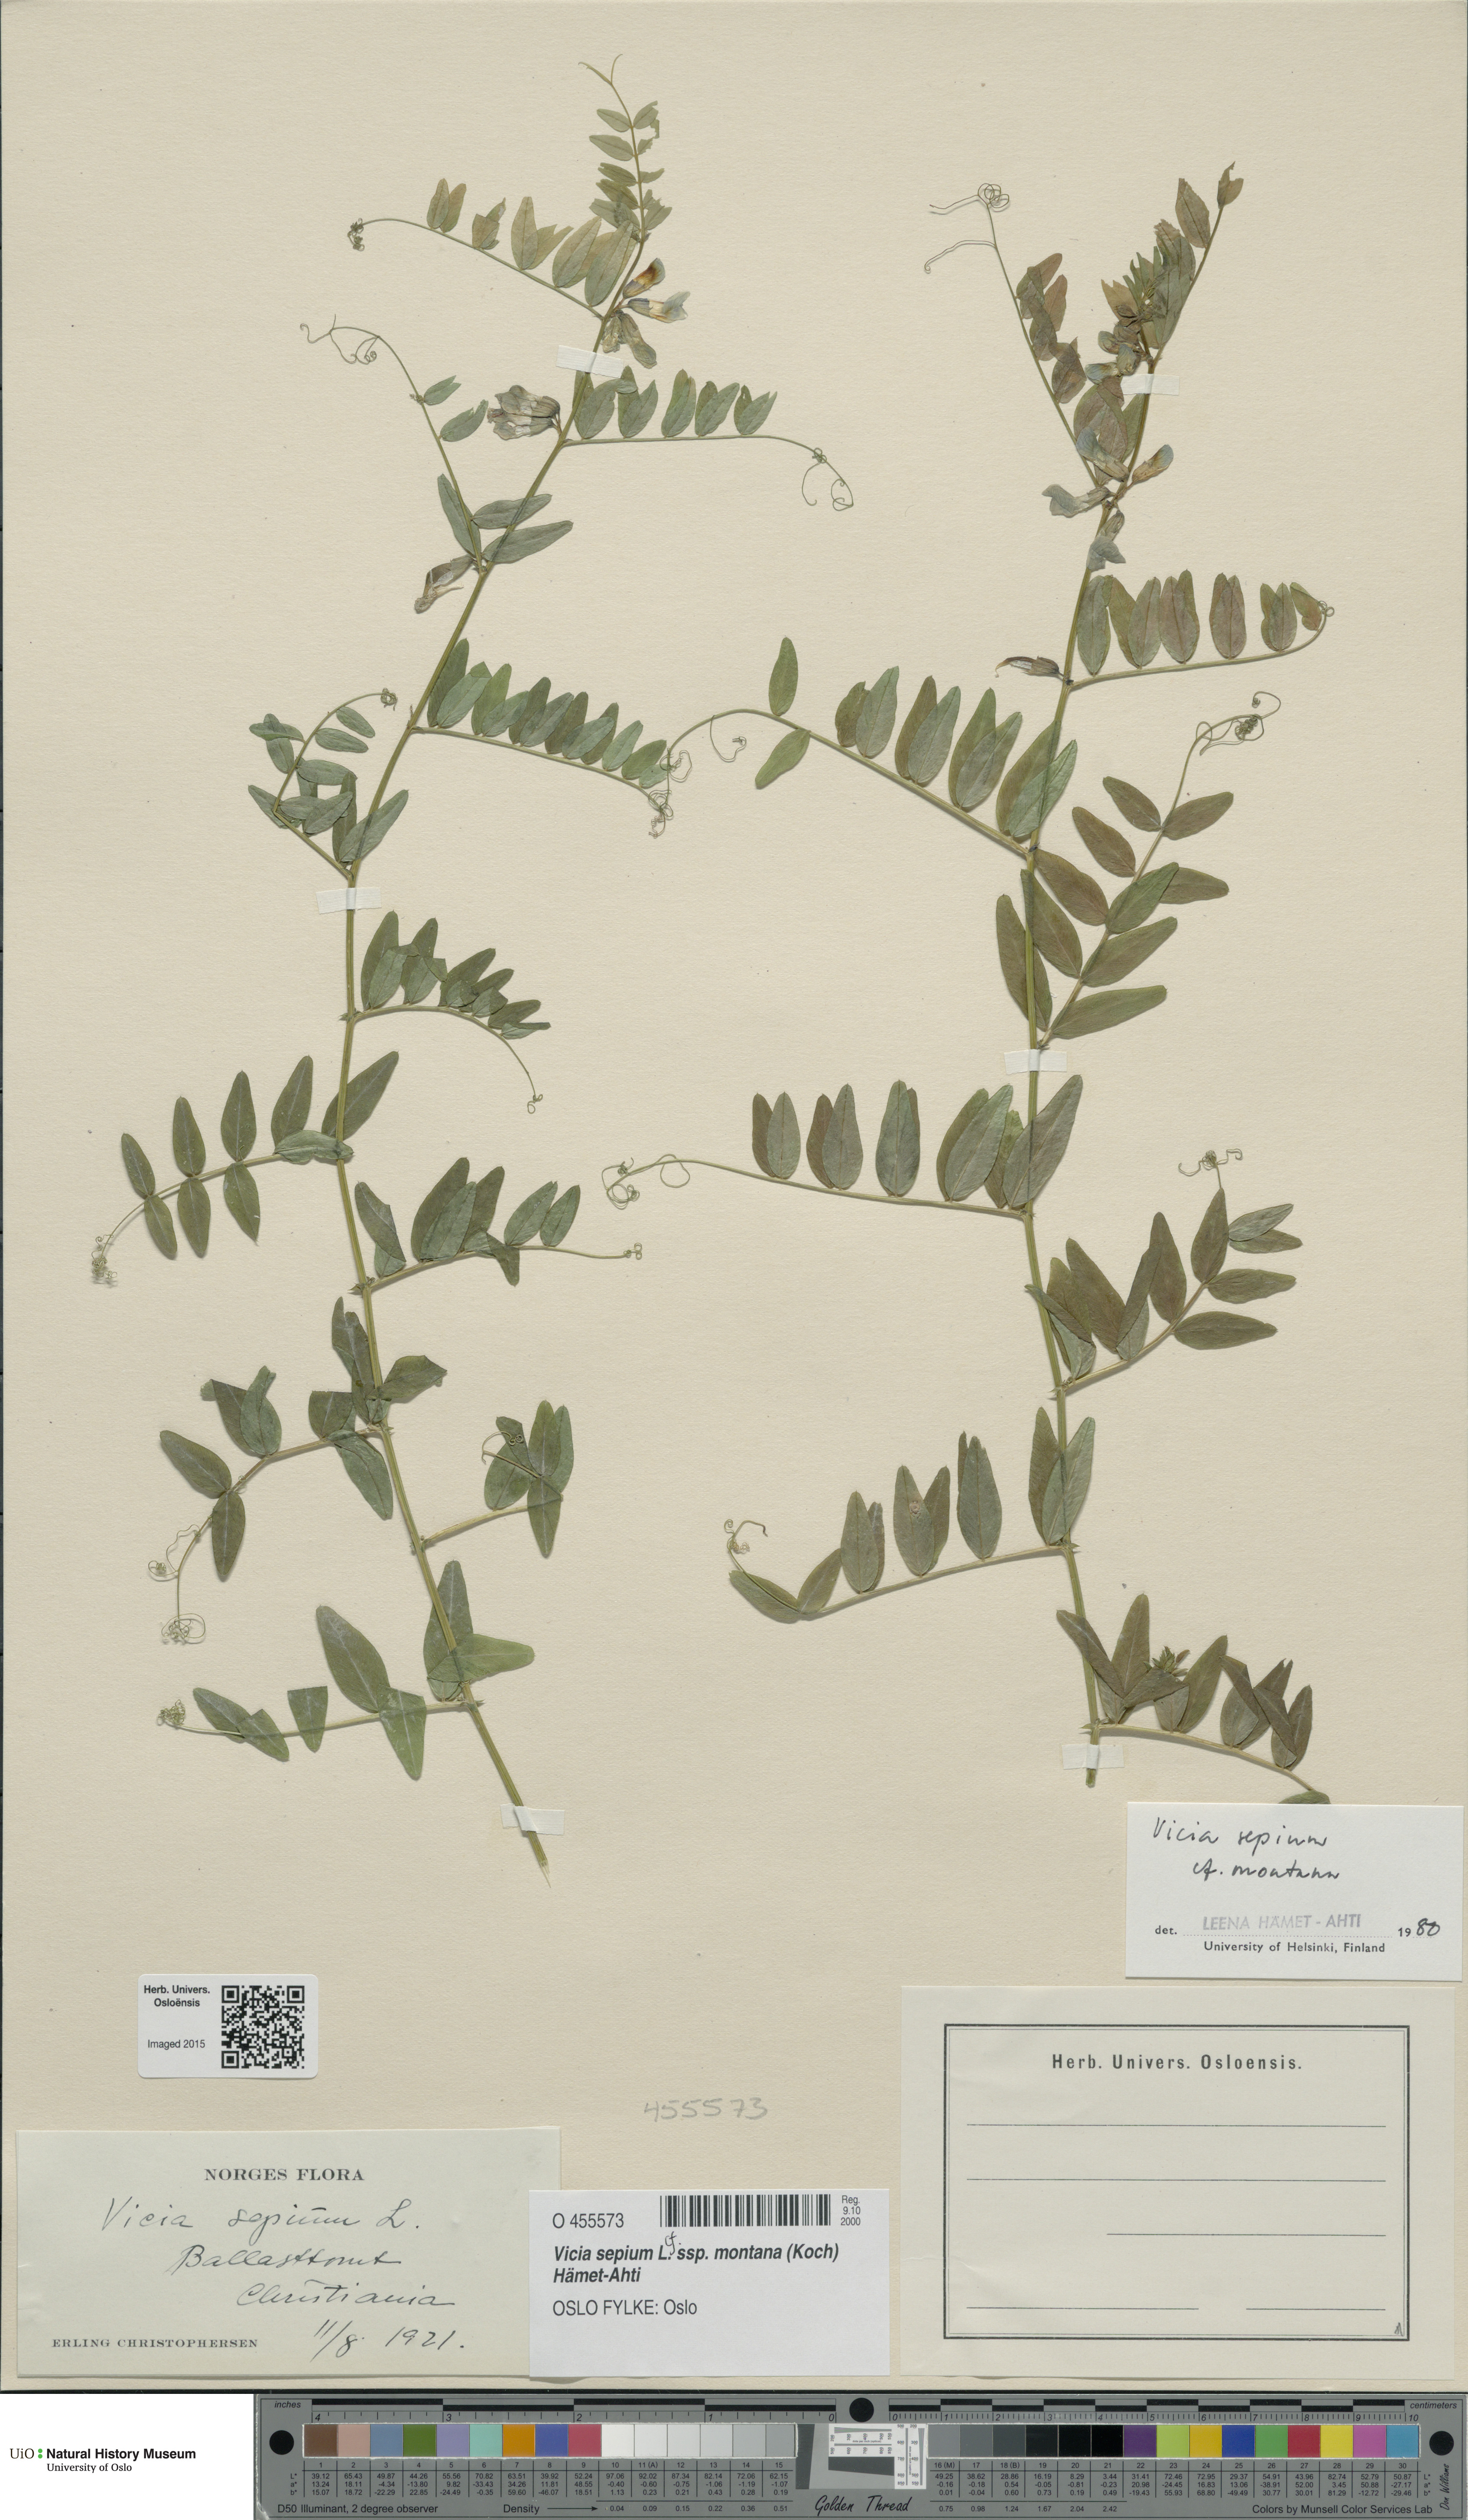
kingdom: Plantae
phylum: Tracheophyta
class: Magnoliopsida
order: Fabales
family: Fabaceae
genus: Vicia
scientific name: Vicia sepium
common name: Bush vetch
